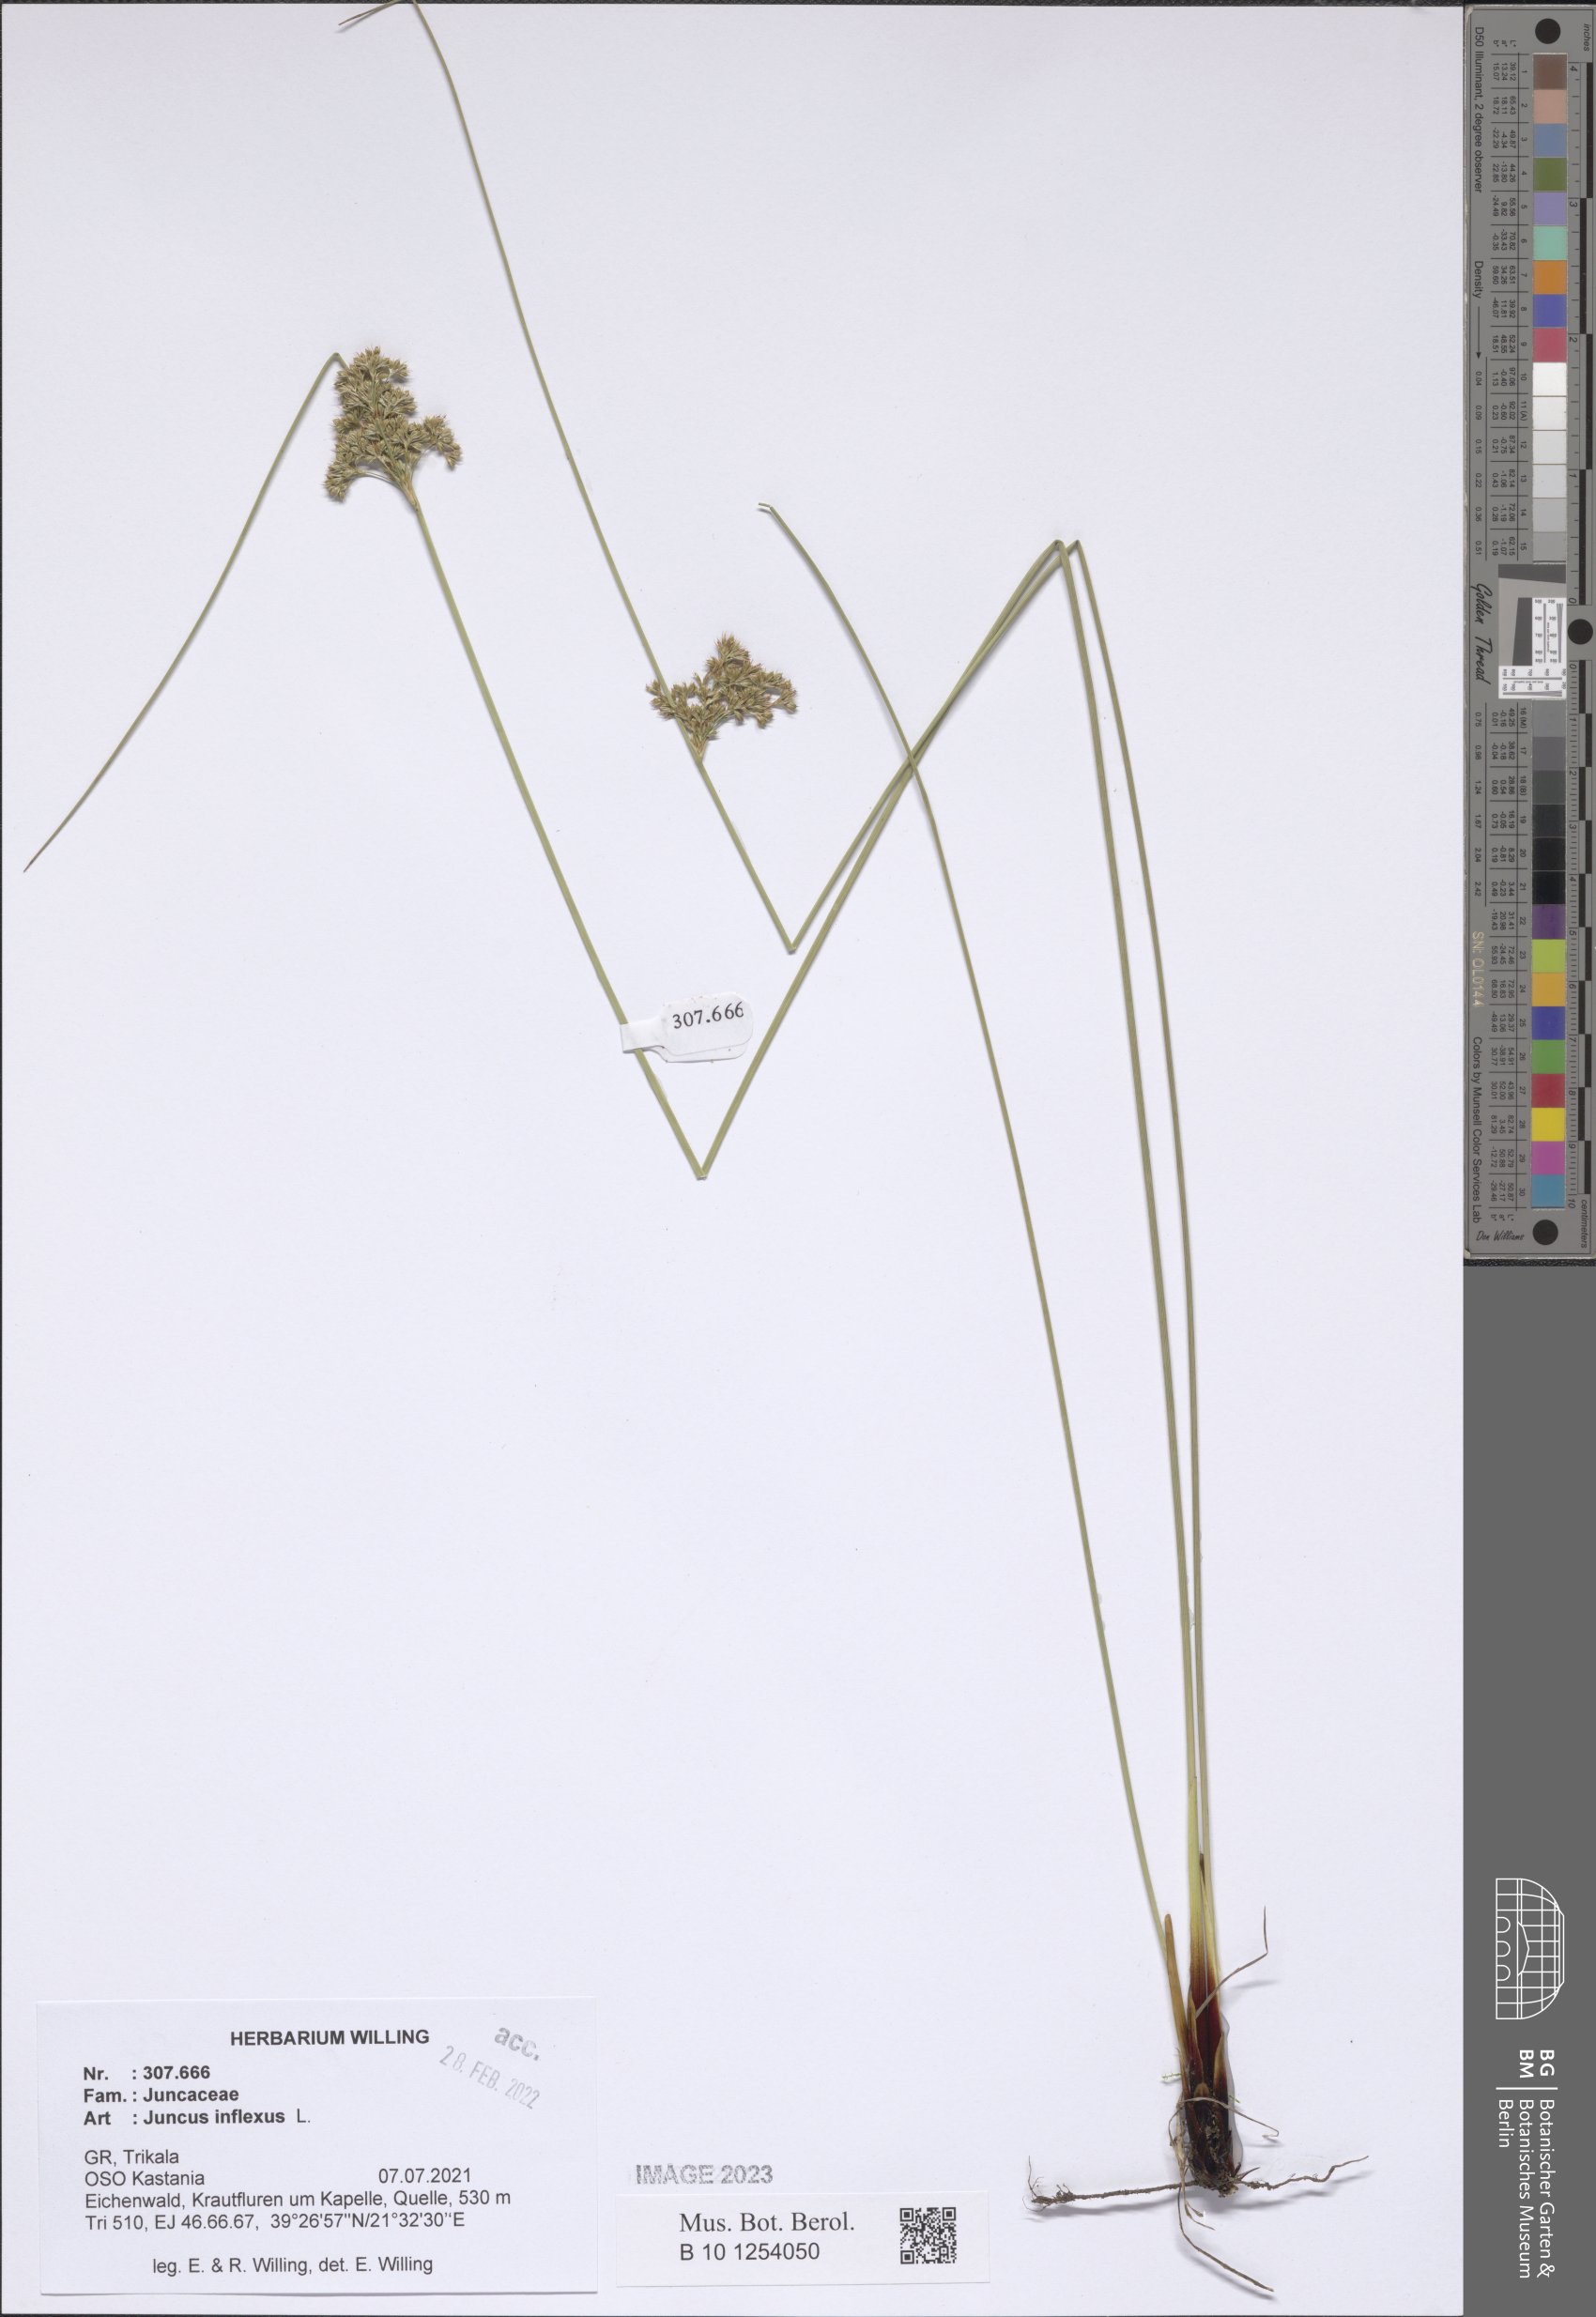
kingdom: Plantae
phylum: Tracheophyta
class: Liliopsida
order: Poales
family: Juncaceae
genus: Juncus
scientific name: Juncus inflexus
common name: Hard rush
